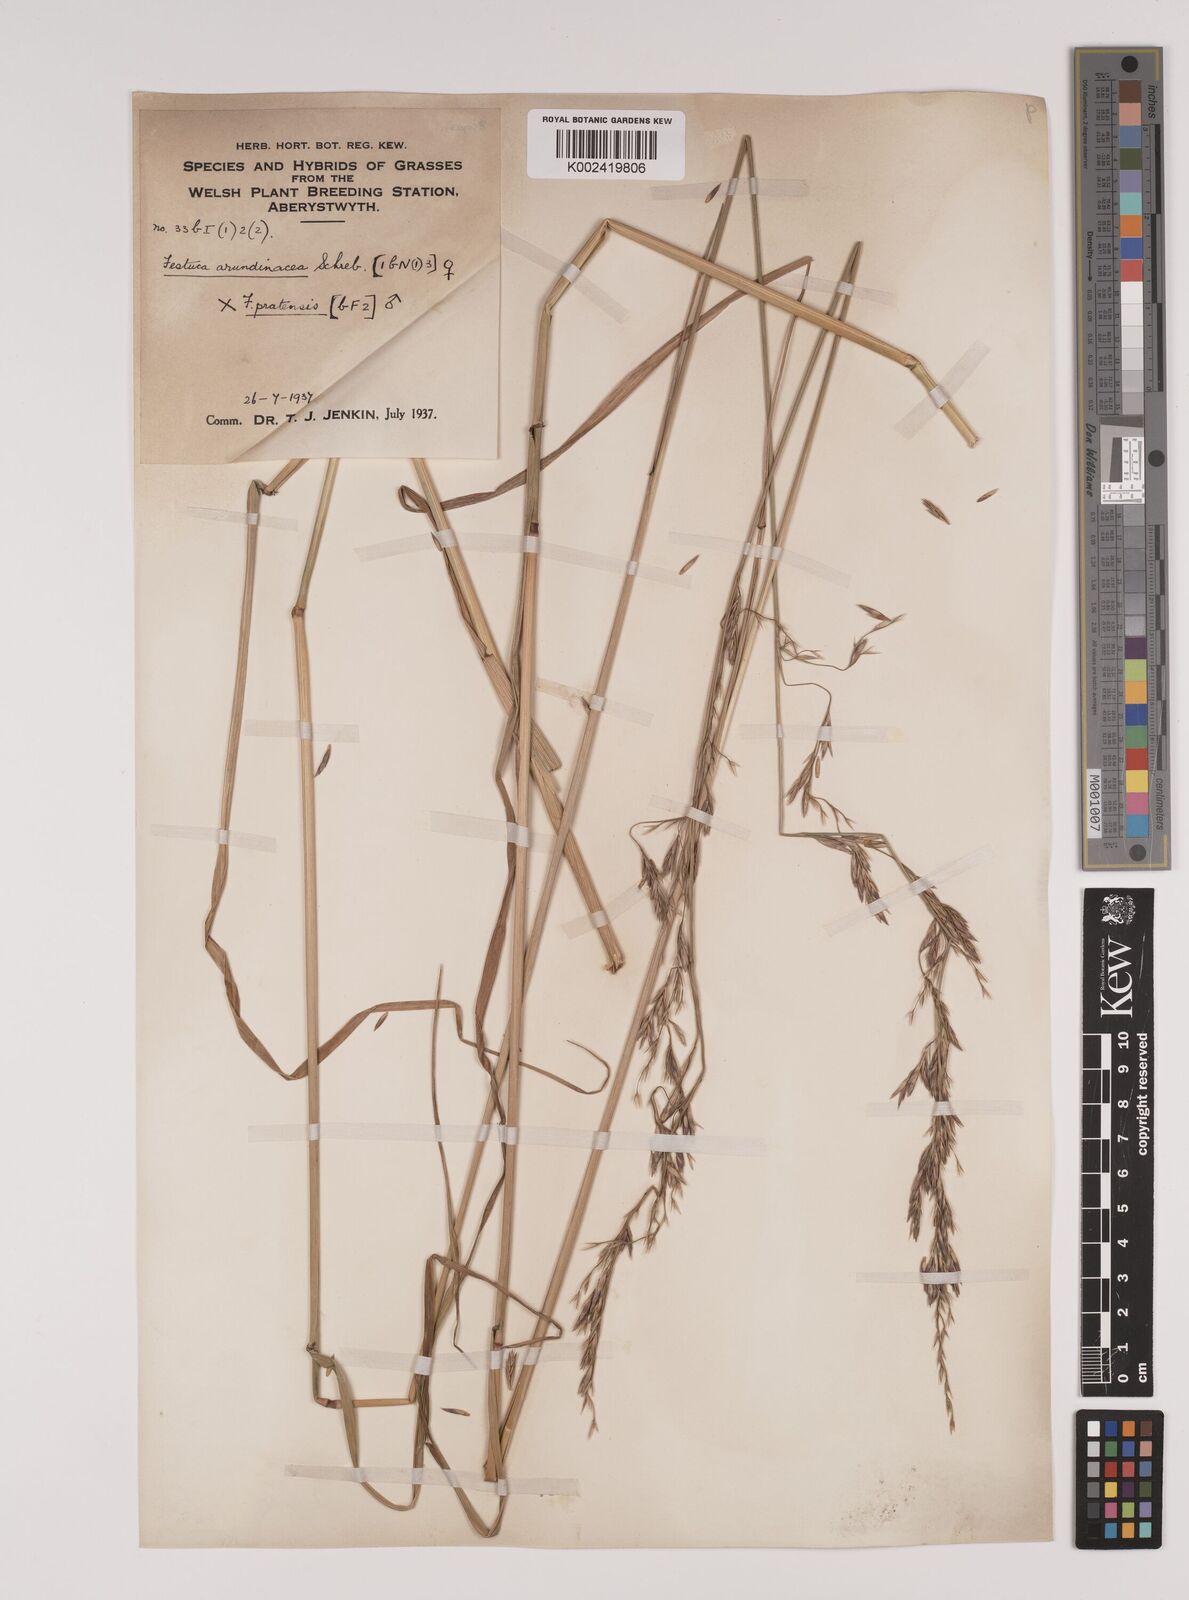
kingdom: Plantae
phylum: Tracheophyta
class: Liliopsida
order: Poales
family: Poaceae
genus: Festuca
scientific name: Festuca rubra
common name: Red fescue
